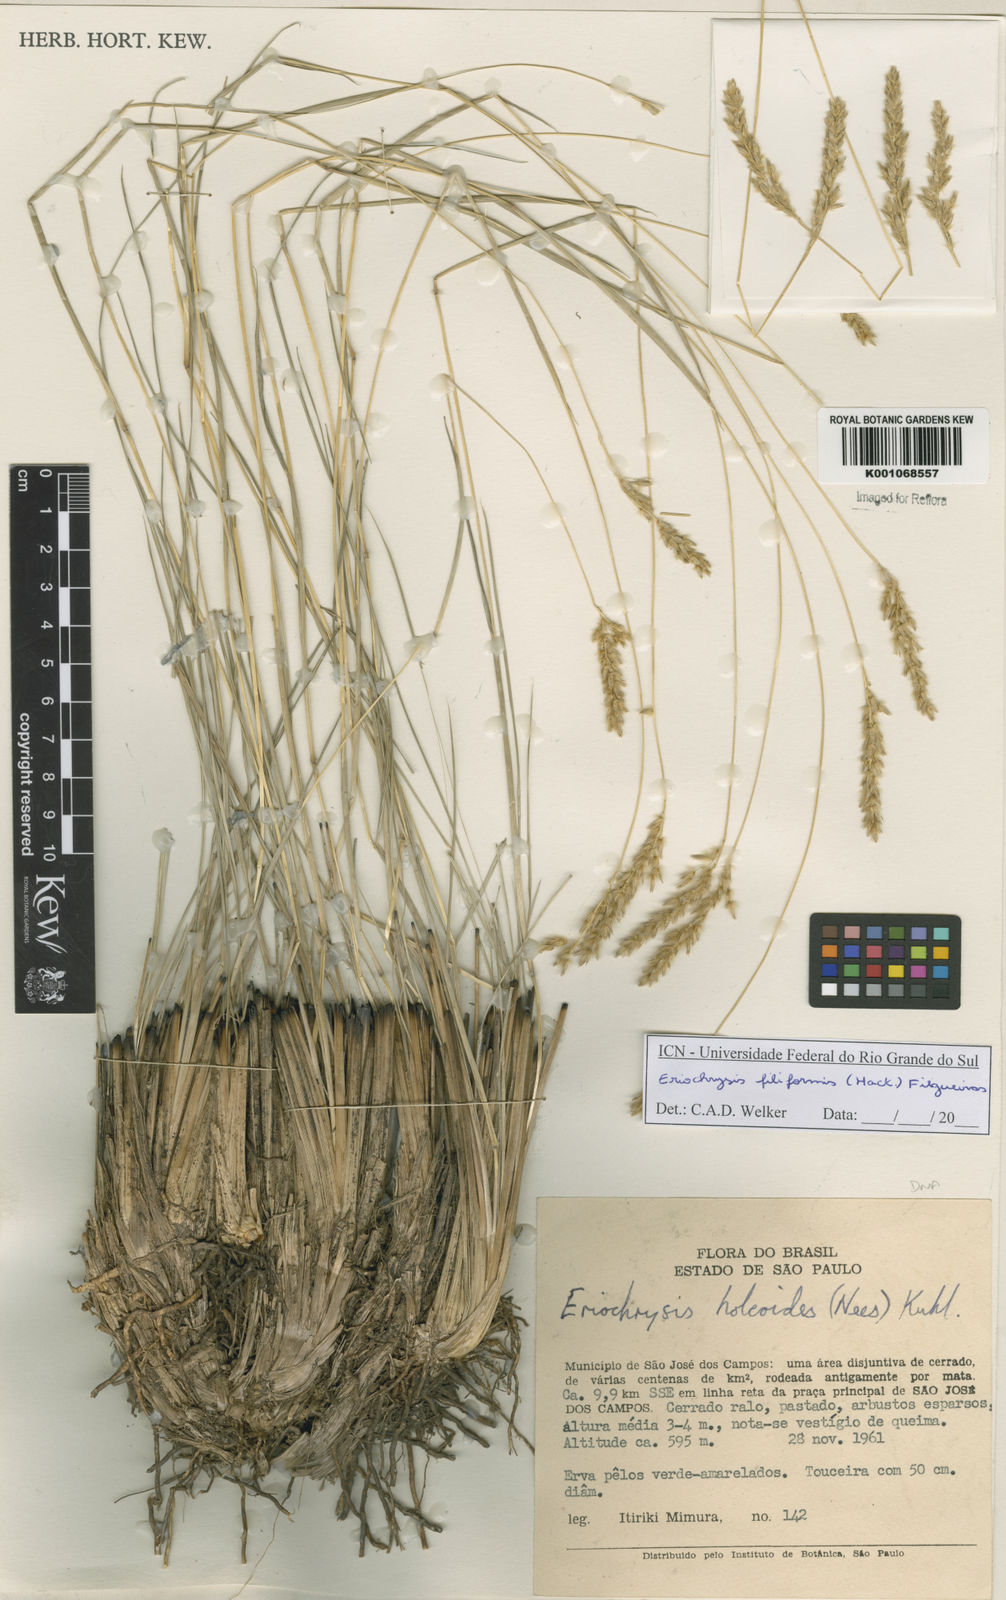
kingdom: Plantae
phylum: Tracheophyta
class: Liliopsida
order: Poales
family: Poaceae
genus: Eriochrysis
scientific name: Eriochrysis filiformis
